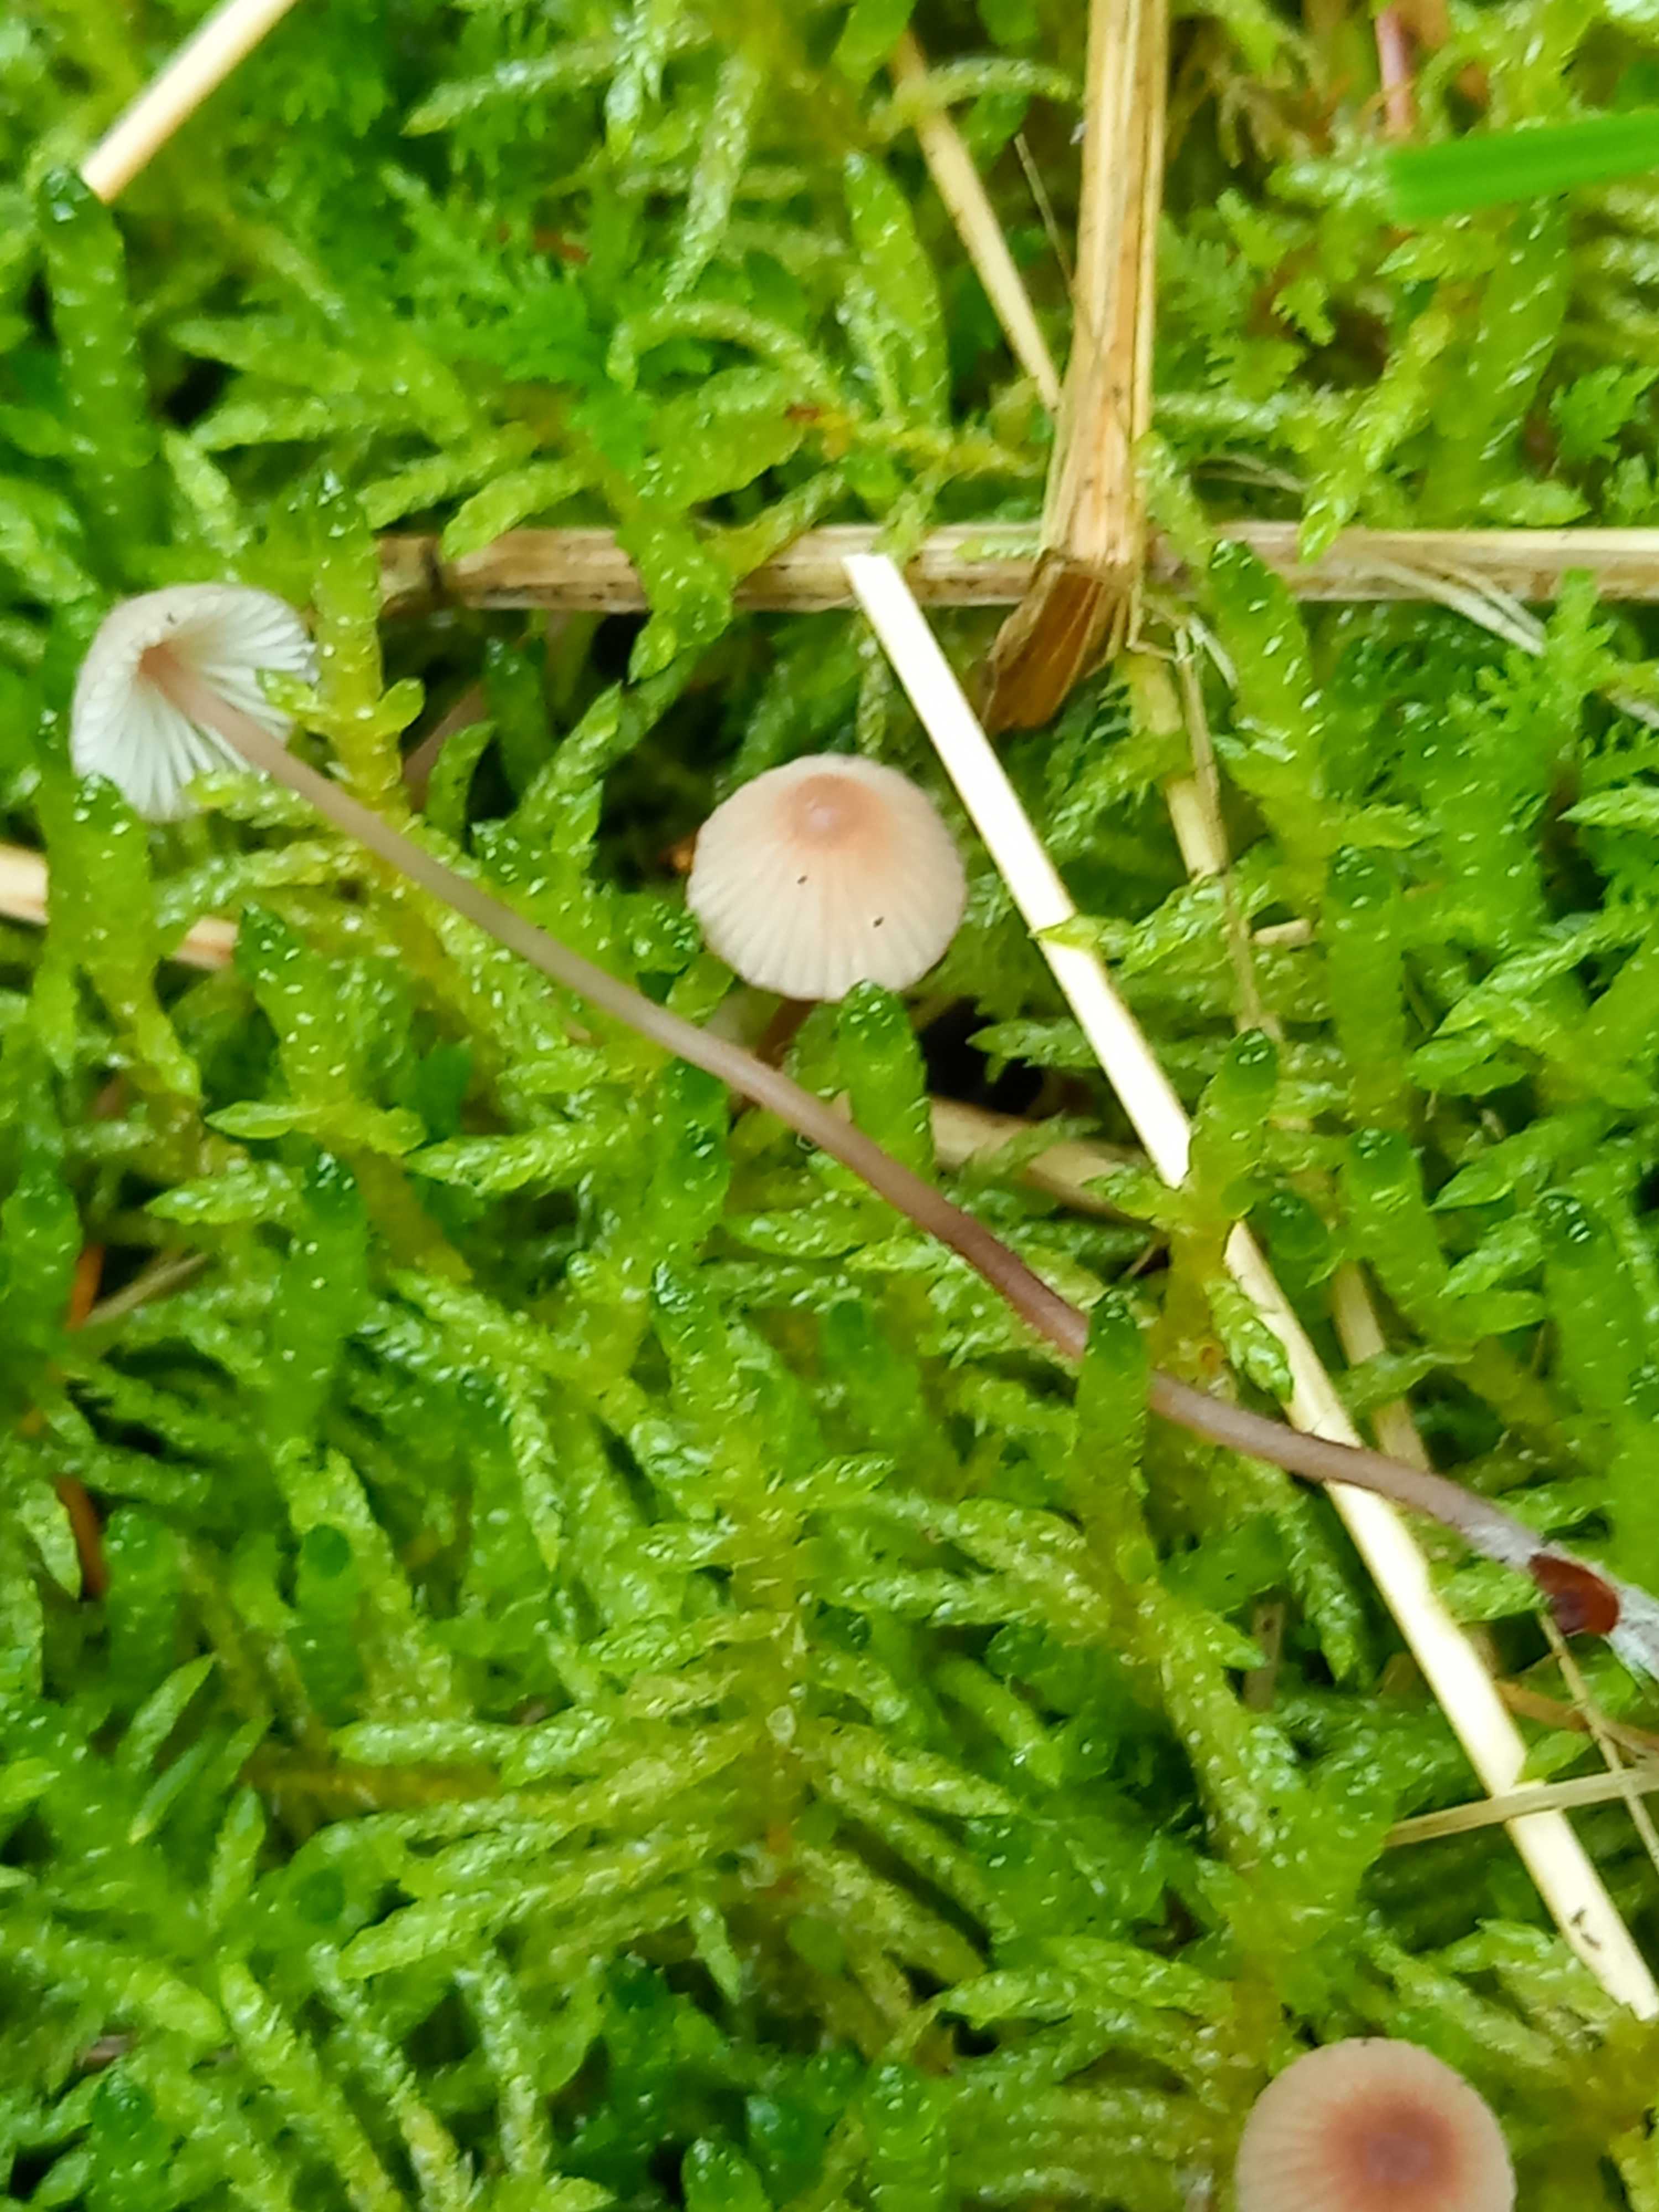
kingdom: Fungi
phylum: Basidiomycota
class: Agaricomycetes
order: Agaricales
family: Mycenaceae
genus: Mycena
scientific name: Mycena sanguinolenta
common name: rødmælket huesvamp
